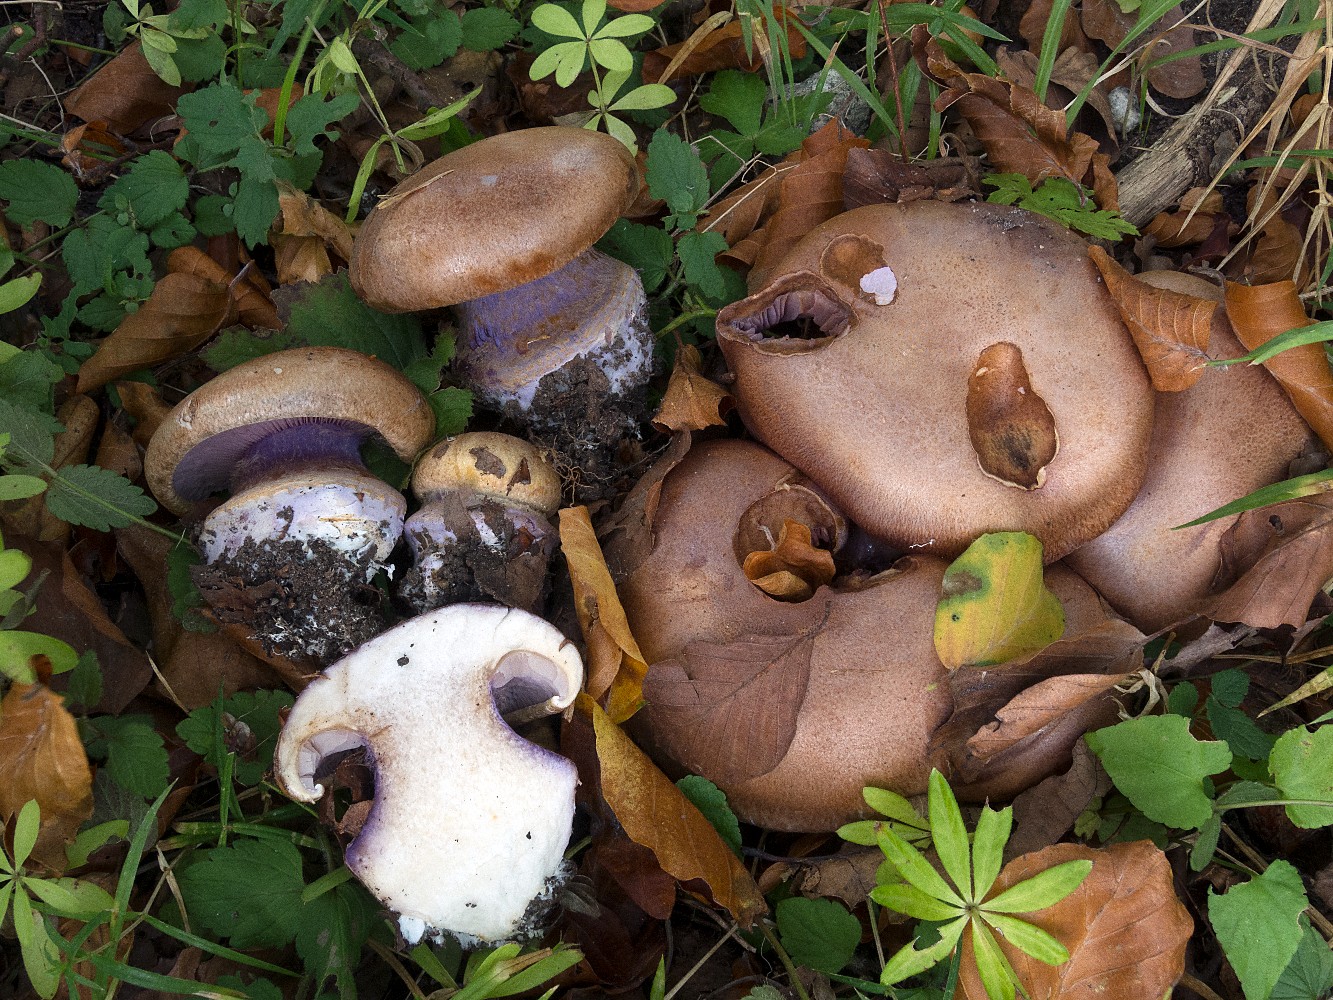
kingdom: Fungi
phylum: Basidiomycota
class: Agaricomycetes
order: Agaricales
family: Cortinariaceae
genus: Calonarius
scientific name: Calonarius violaceipes
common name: stedmoder-slørhat
